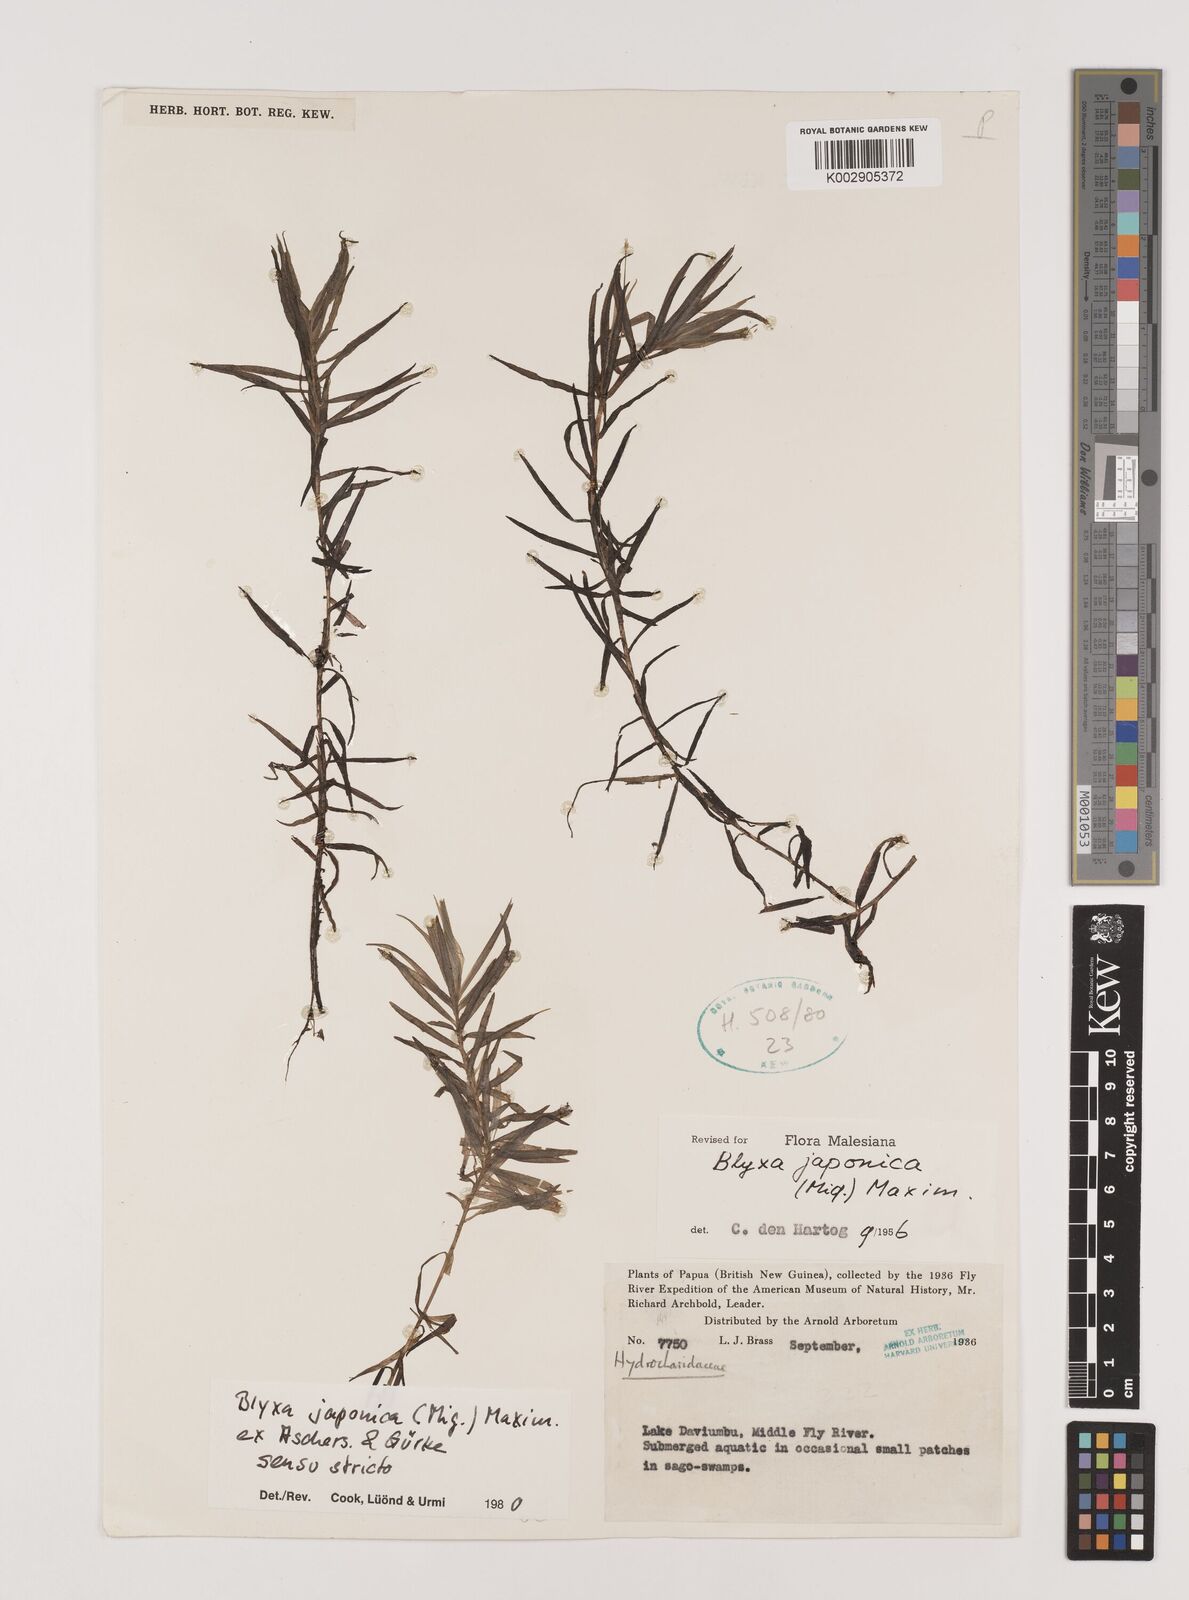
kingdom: Plantae
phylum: Tracheophyta
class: Liliopsida
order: Alismatales
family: Hydrocharitaceae
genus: Blyxa
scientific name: Blyxa japonica
